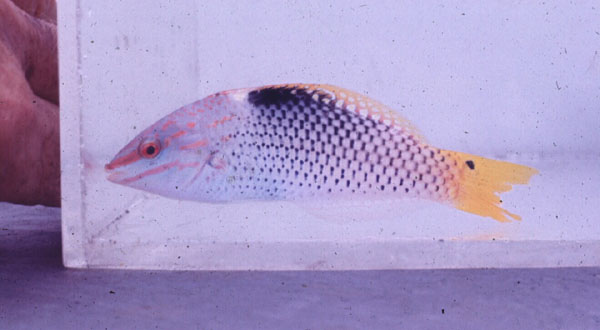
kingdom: Animalia
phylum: Chordata
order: Perciformes
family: Labridae
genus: Halichoeres
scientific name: Halichoeres hortulanus
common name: Checkerboard wrasse
